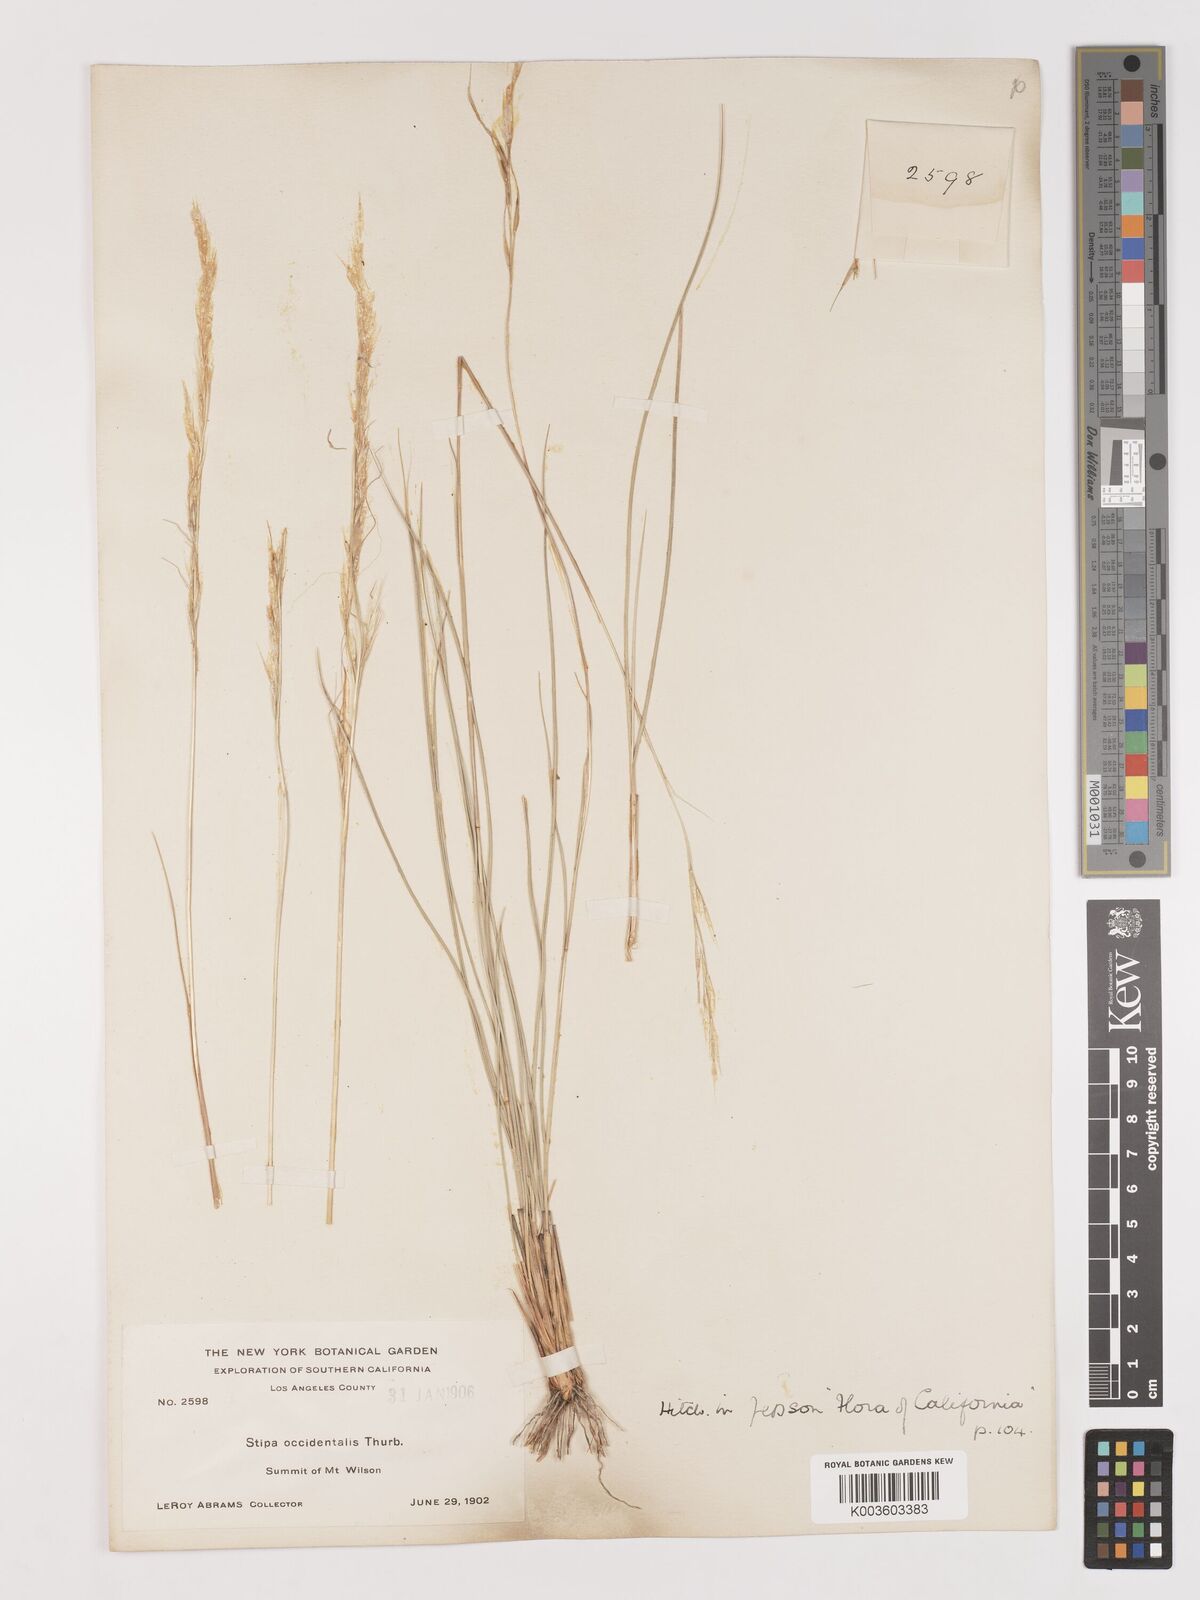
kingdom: Plantae
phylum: Tracheophyta
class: Liliopsida
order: Poales
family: Poaceae
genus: Eriocoma
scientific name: Eriocoma thurberiana
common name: Thurber's needlegrass
